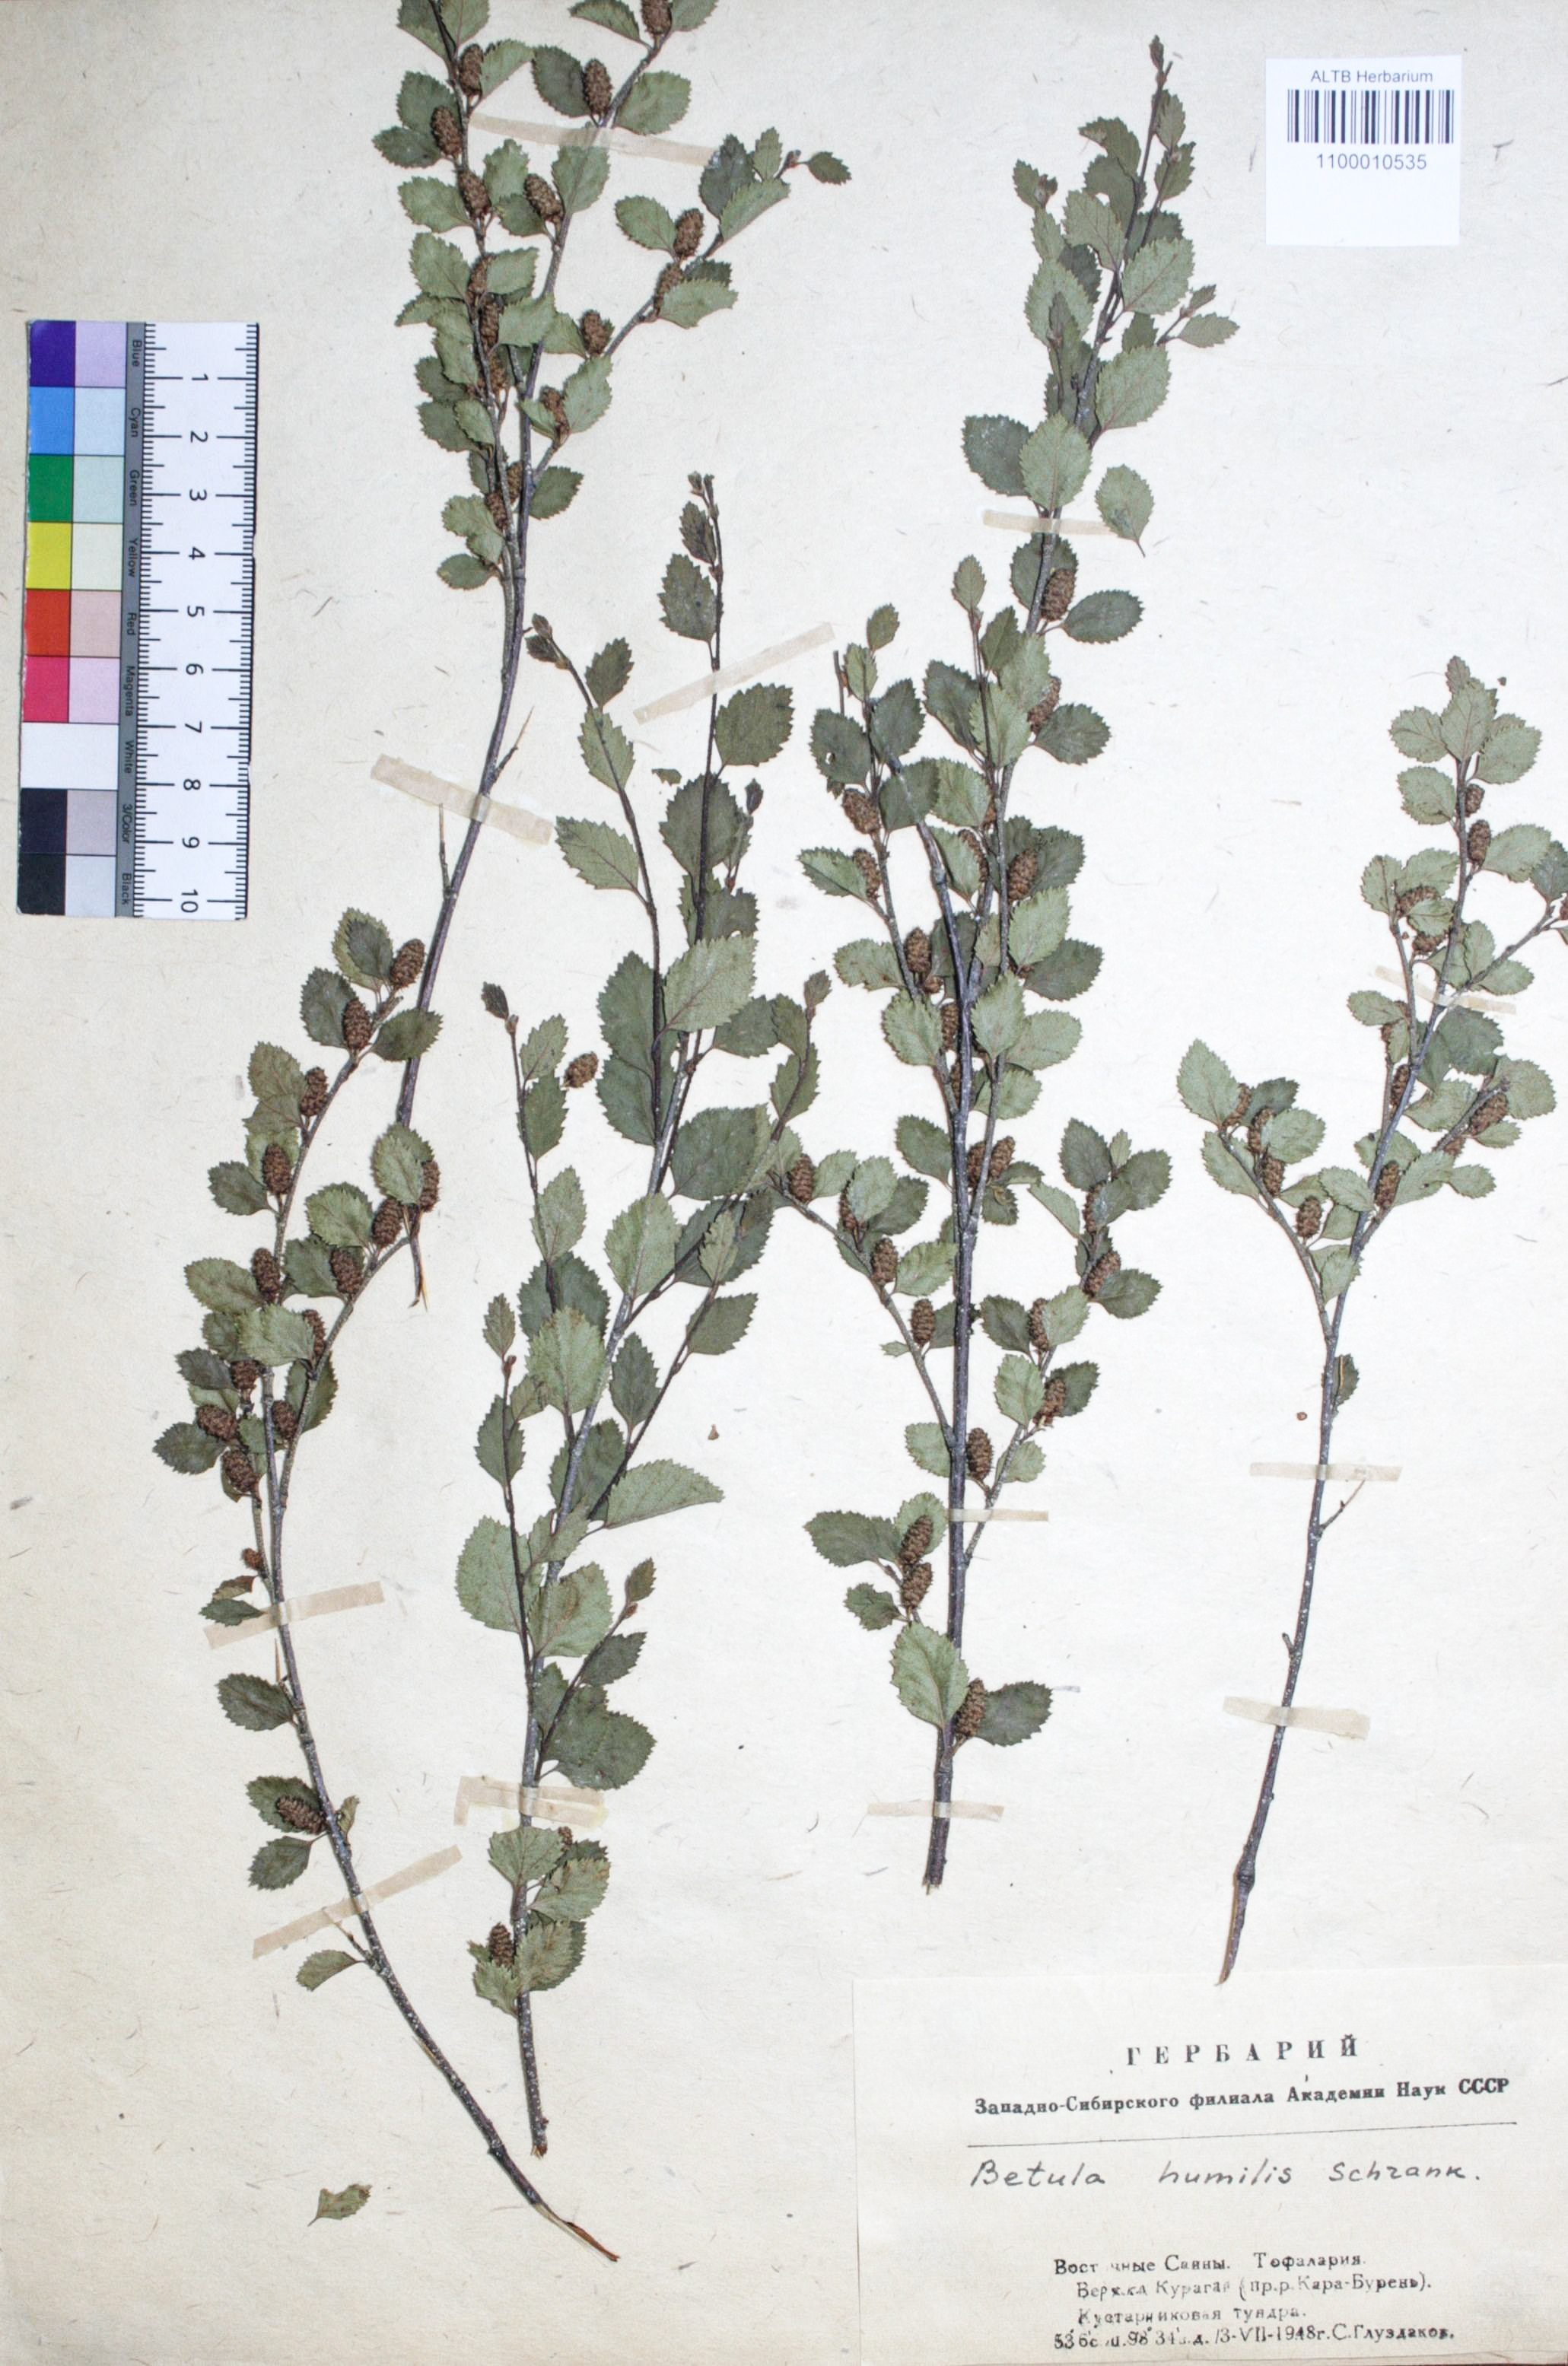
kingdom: Plantae
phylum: Tracheophyta
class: Magnoliopsida
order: Fagales
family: Betulaceae
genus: Betula
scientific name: Betula humilis
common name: Shrubby birch
